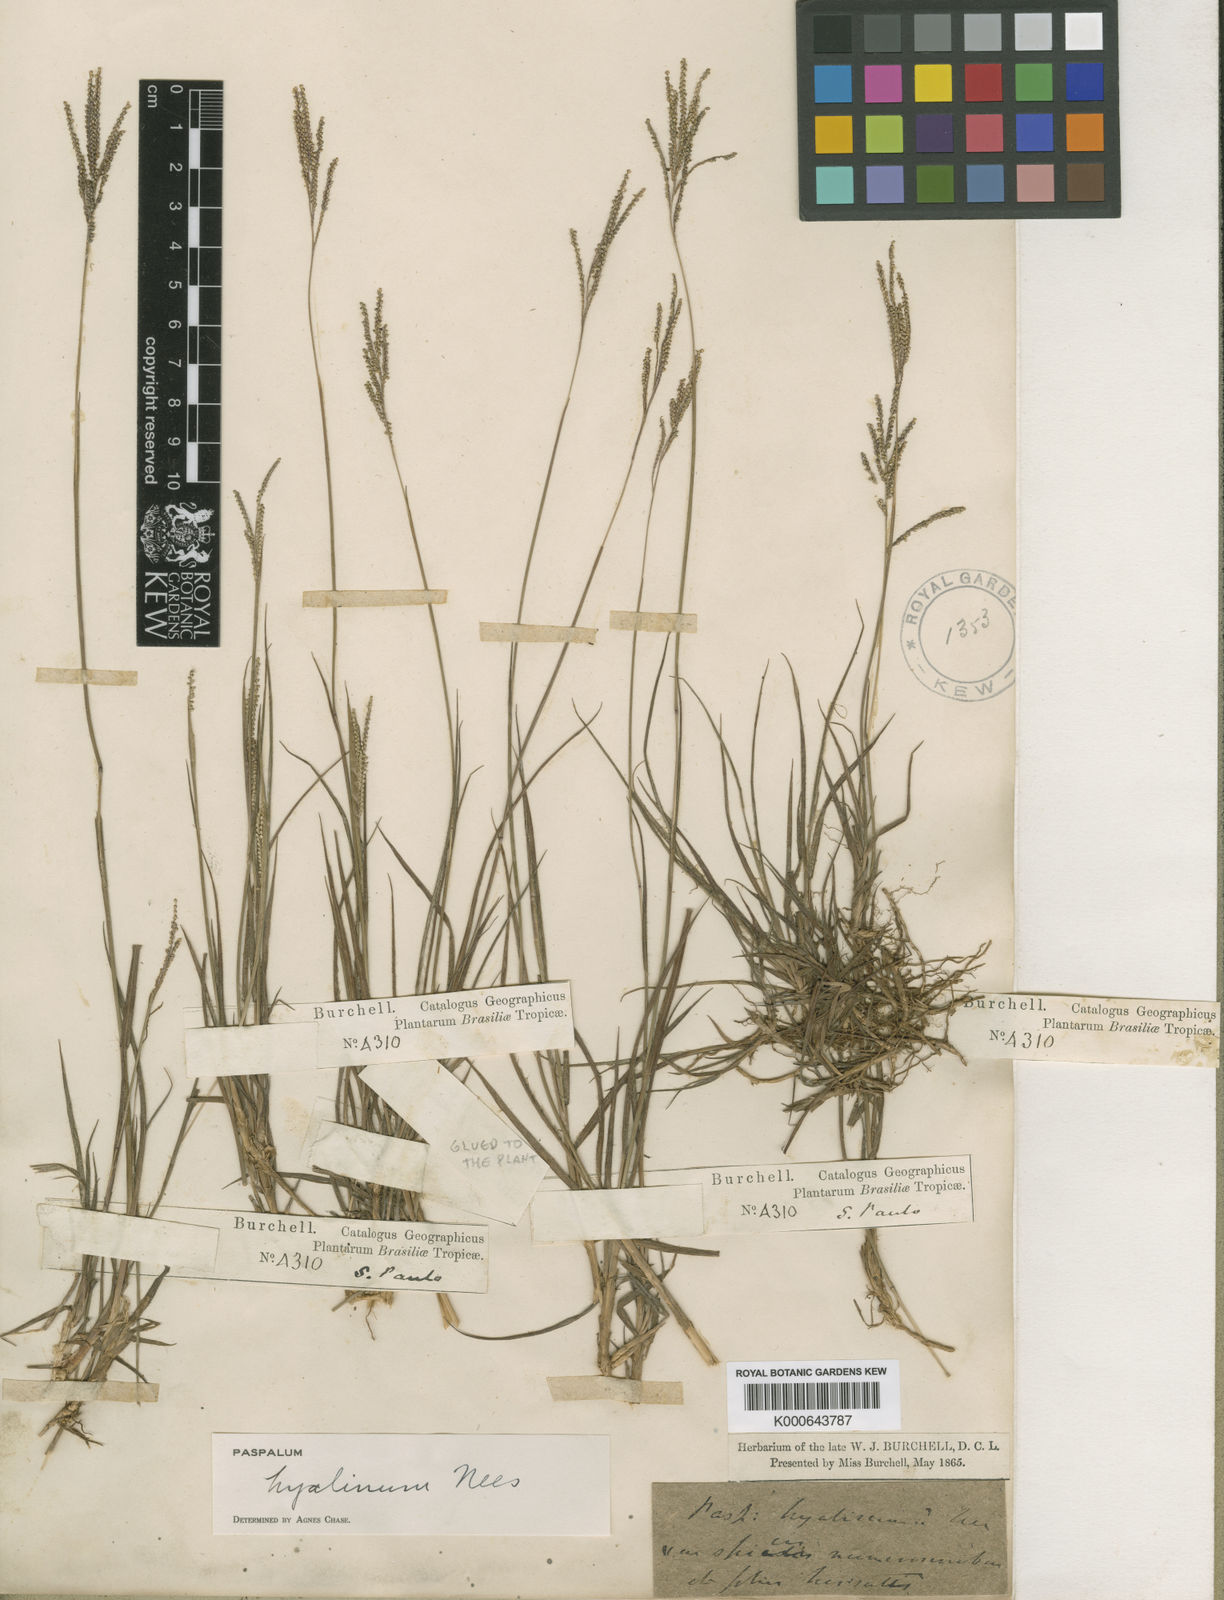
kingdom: Plantae
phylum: Tracheophyta
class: Liliopsida
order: Poales
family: Poaceae
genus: Paspalum
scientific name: Paspalum hyalinum
